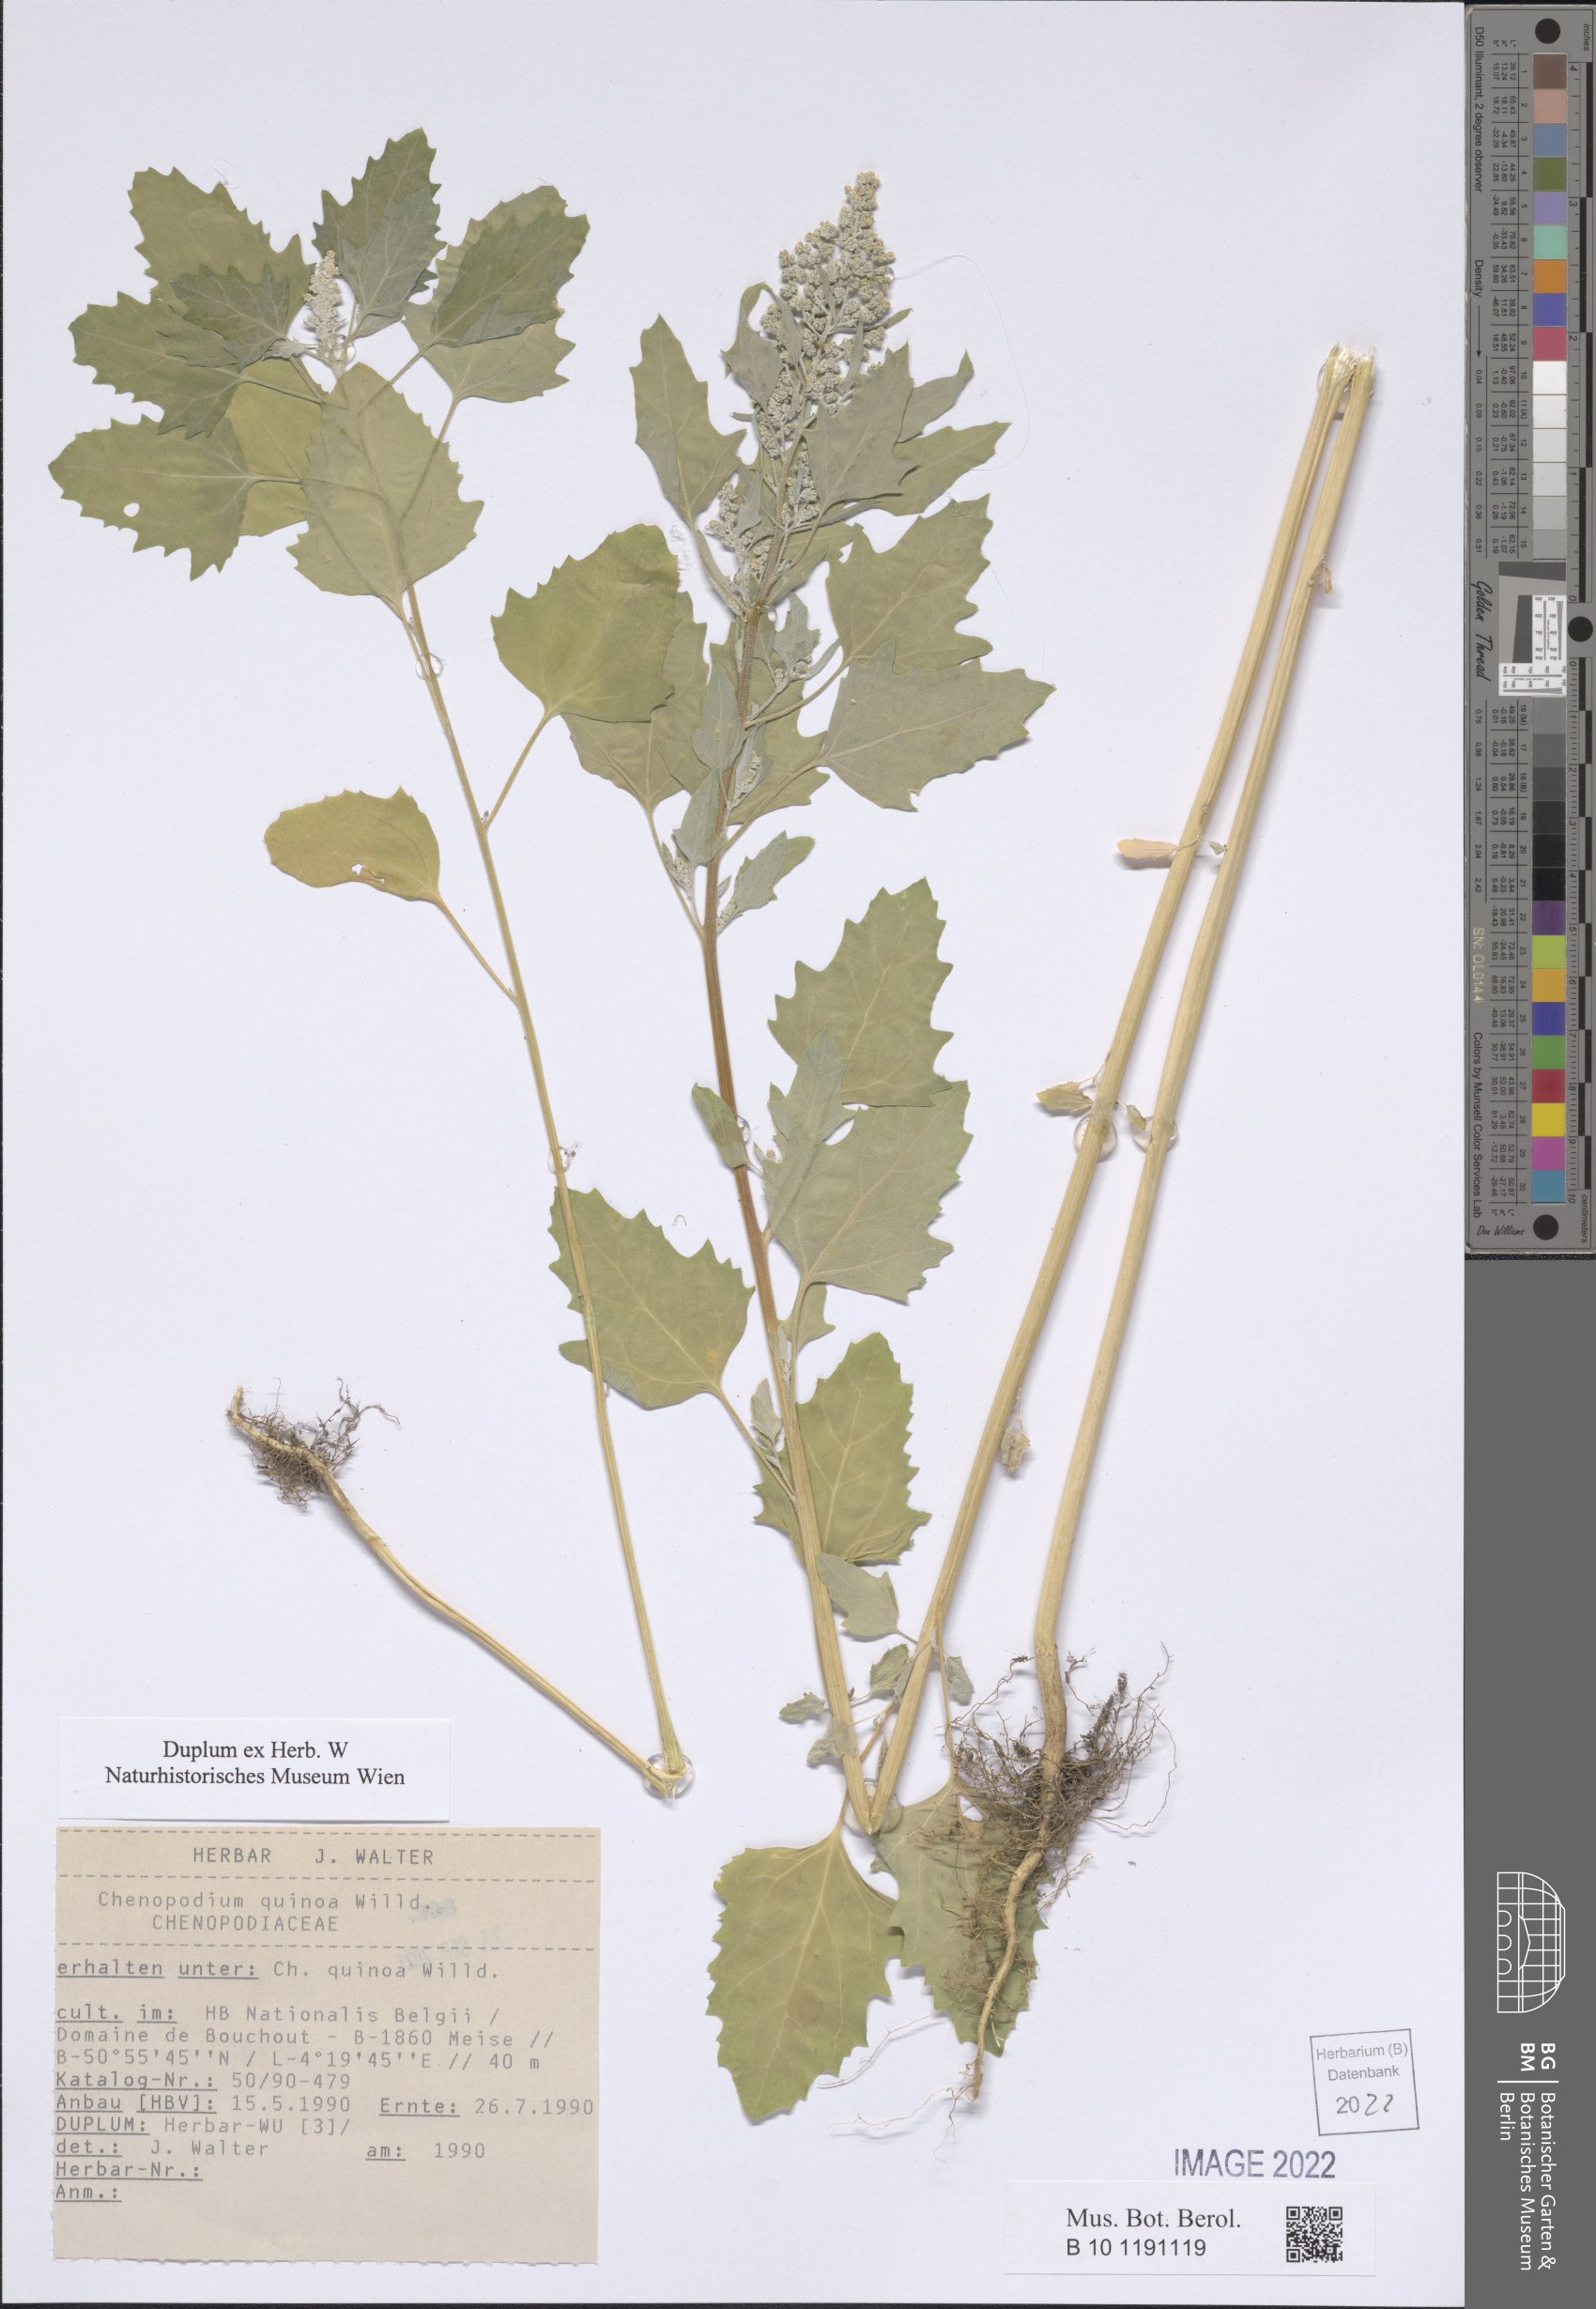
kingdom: Plantae
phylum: Tracheophyta
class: Magnoliopsida
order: Caryophyllales
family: Amaranthaceae
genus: Chenopodium
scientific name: Chenopodium quinoa
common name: Quinoa
